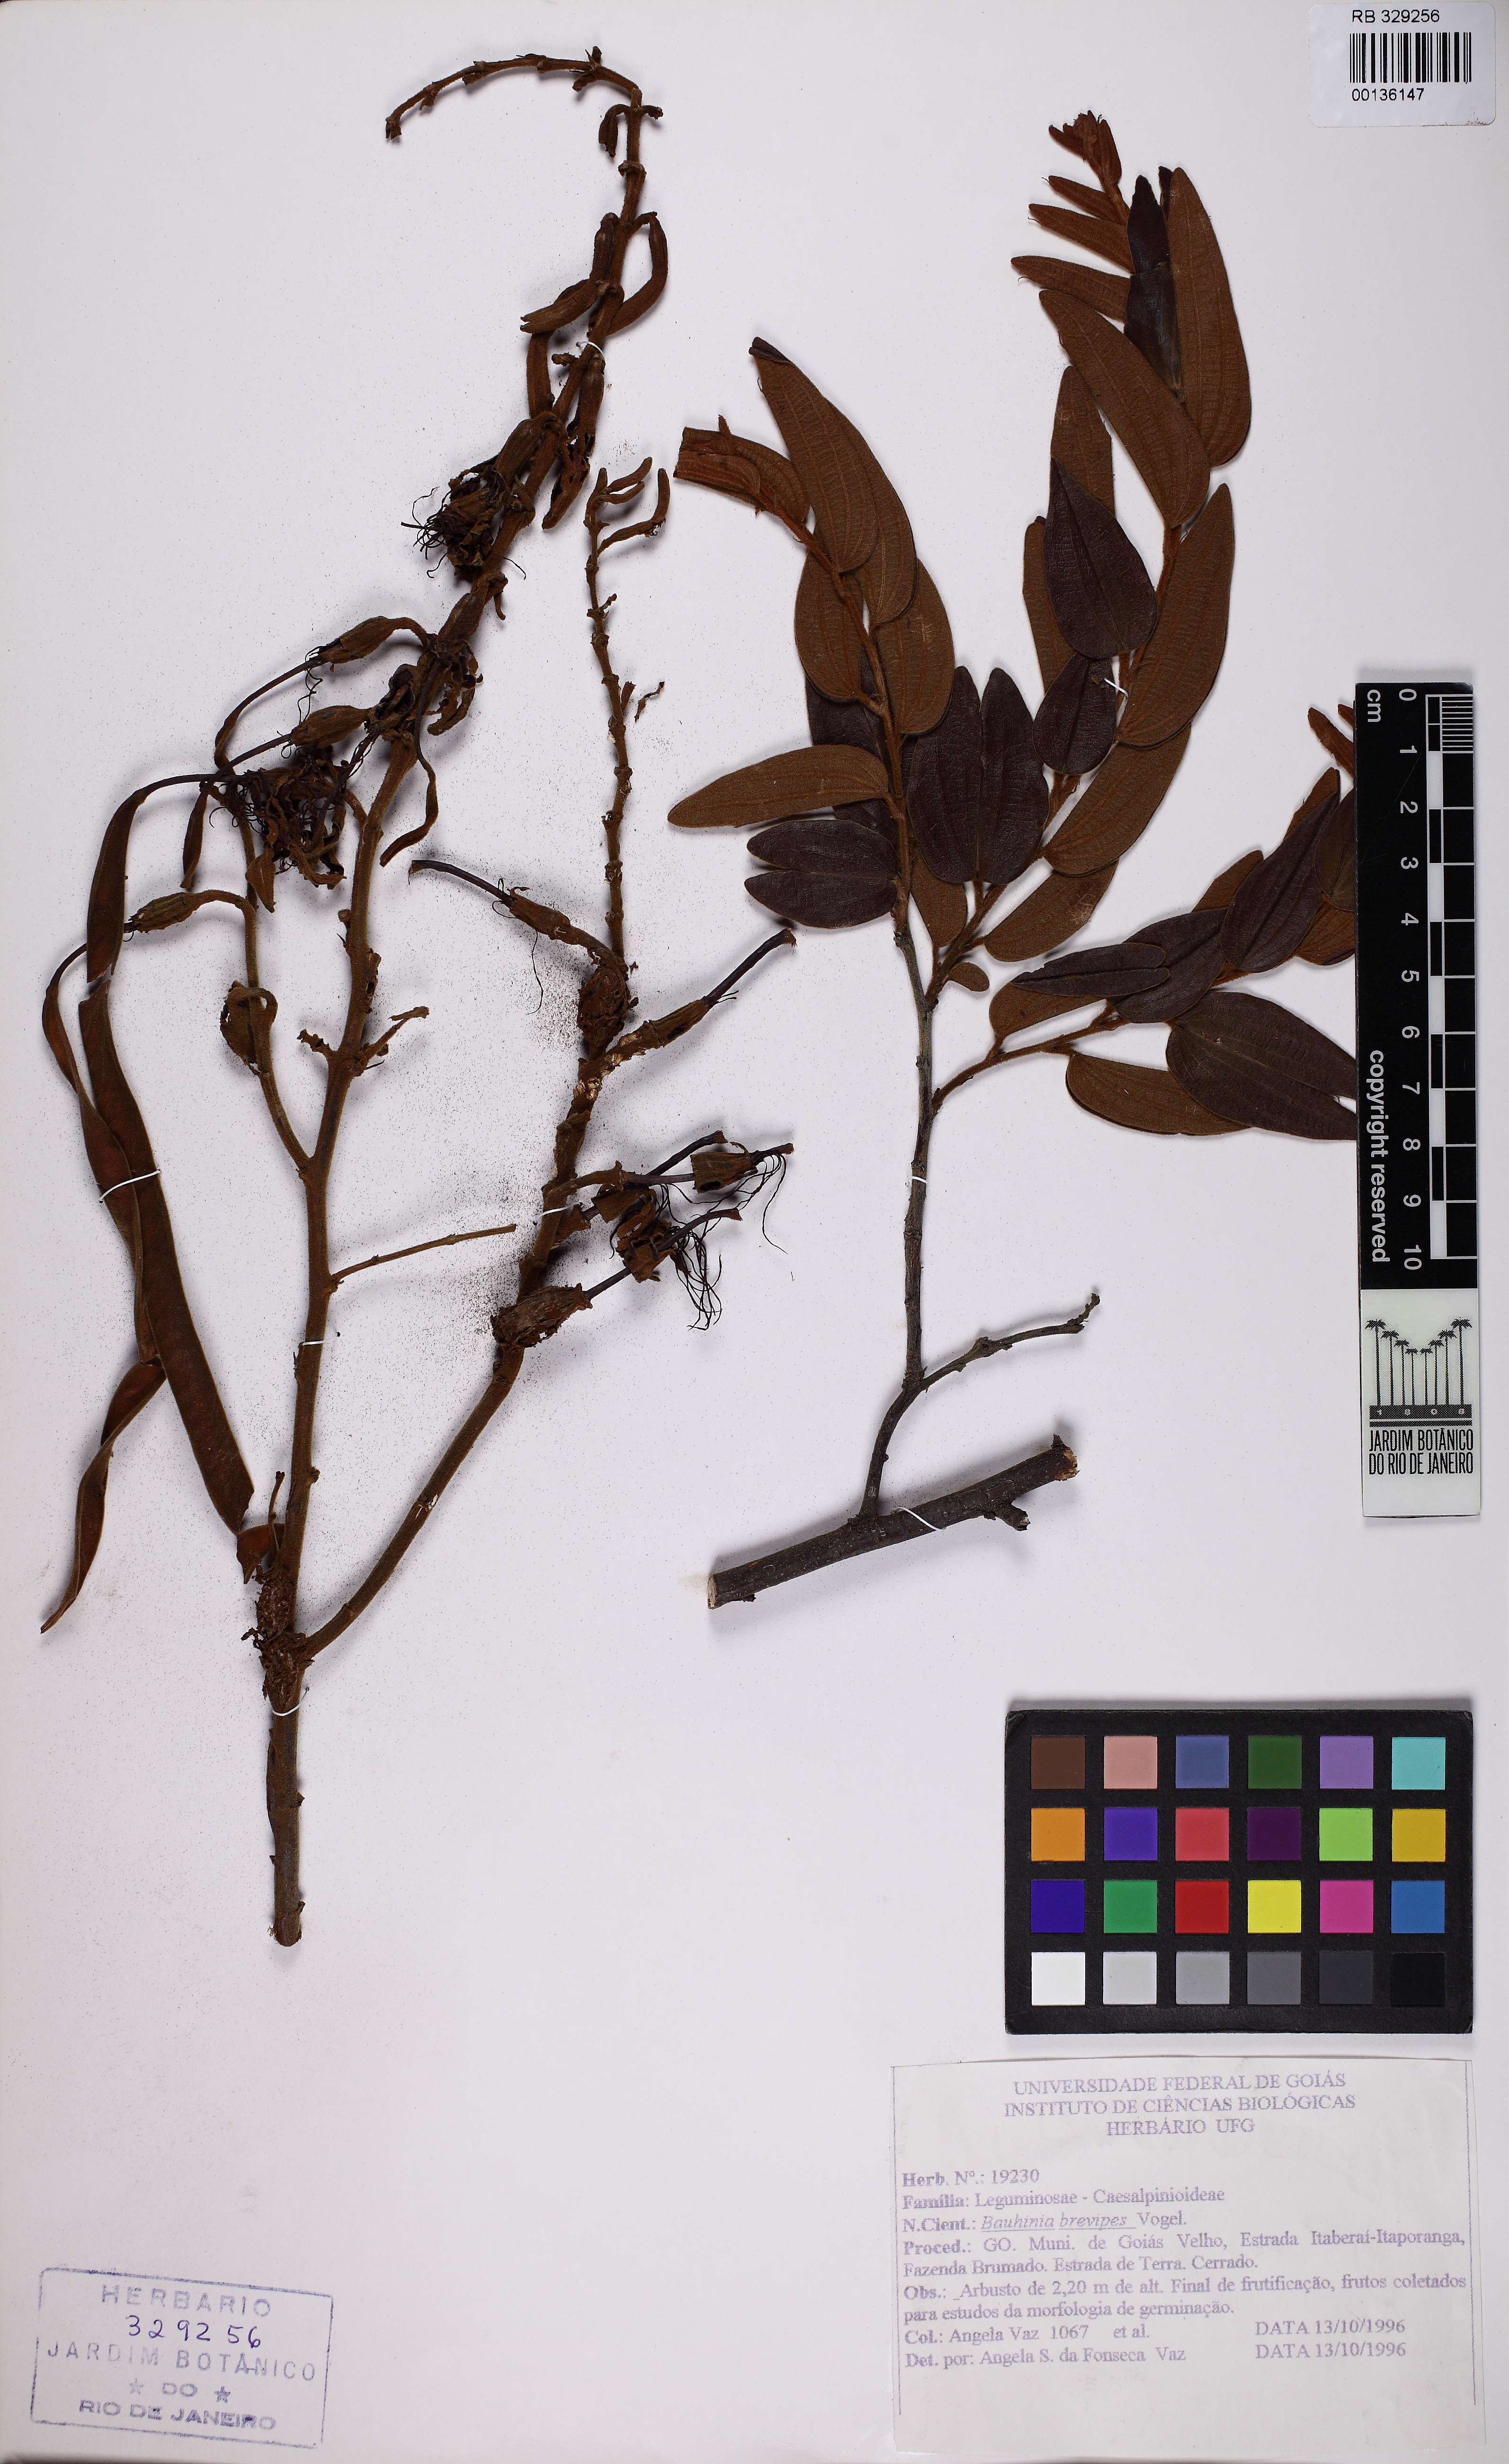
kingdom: Plantae
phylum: Tracheophyta
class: Magnoliopsida
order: Fabales
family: Fabaceae
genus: Bauhinia
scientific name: Bauhinia brevipes
